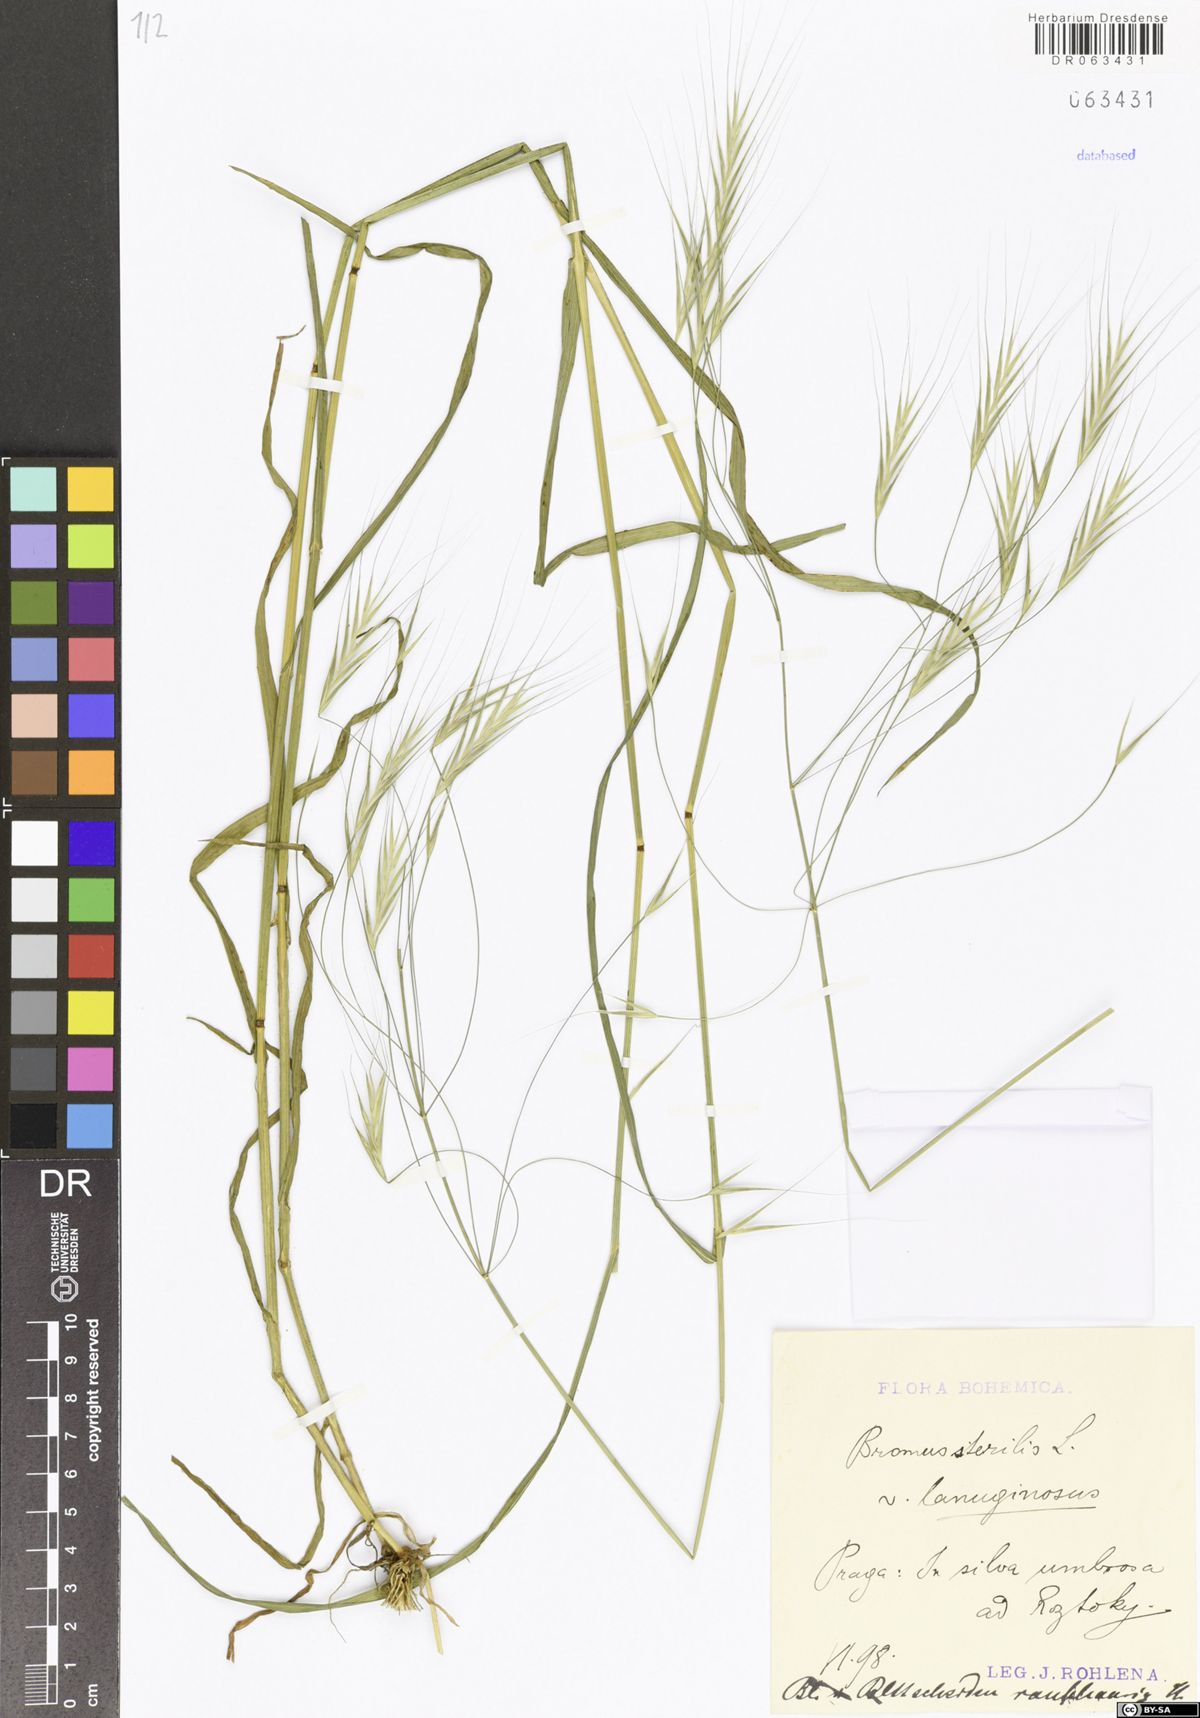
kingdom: Plantae
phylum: Tracheophyta
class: Liliopsida
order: Poales
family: Poaceae
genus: Bromus
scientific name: Bromus sterilis
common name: Poverty brome
